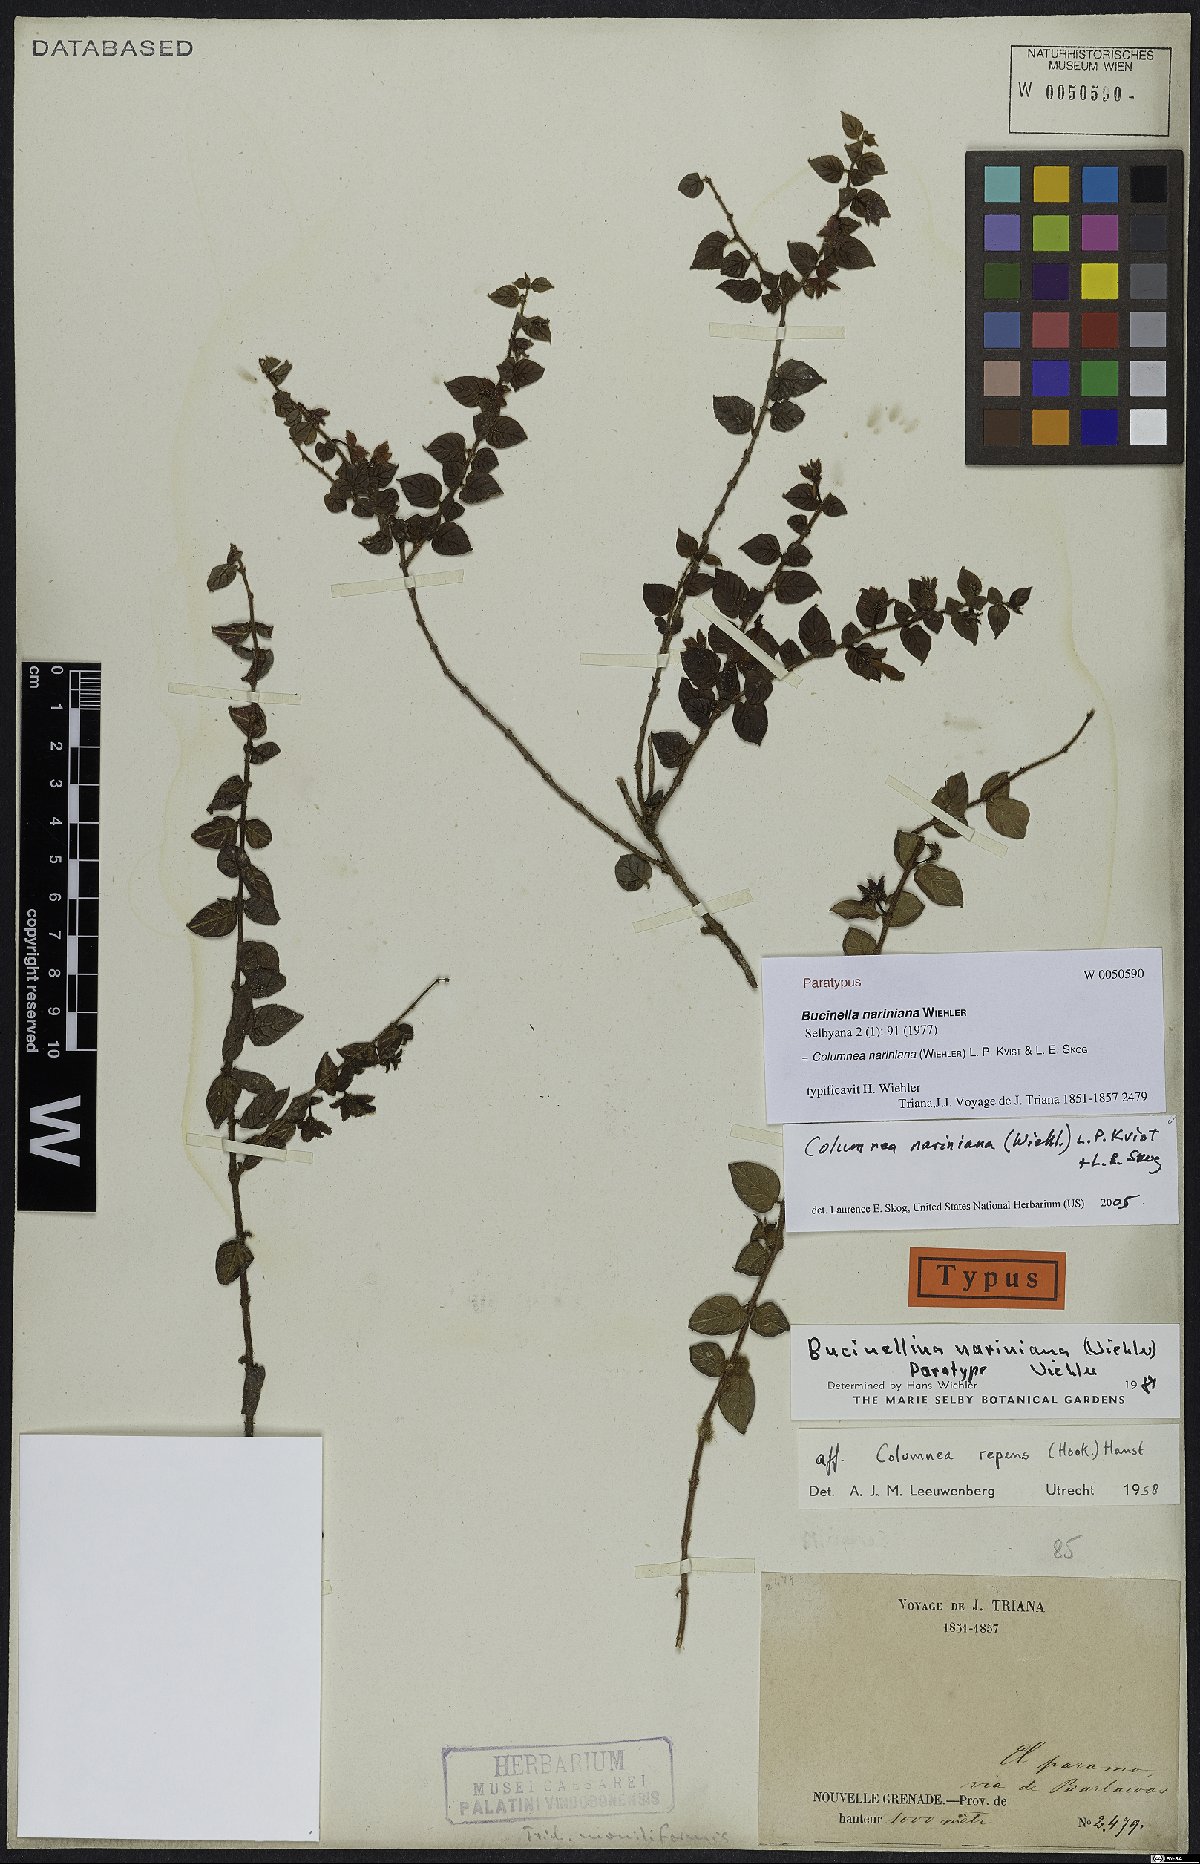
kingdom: Plantae
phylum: Tracheophyta
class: Magnoliopsida
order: Lamiales
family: Gesneriaceae
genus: Columnea
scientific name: Columnea nariniana
